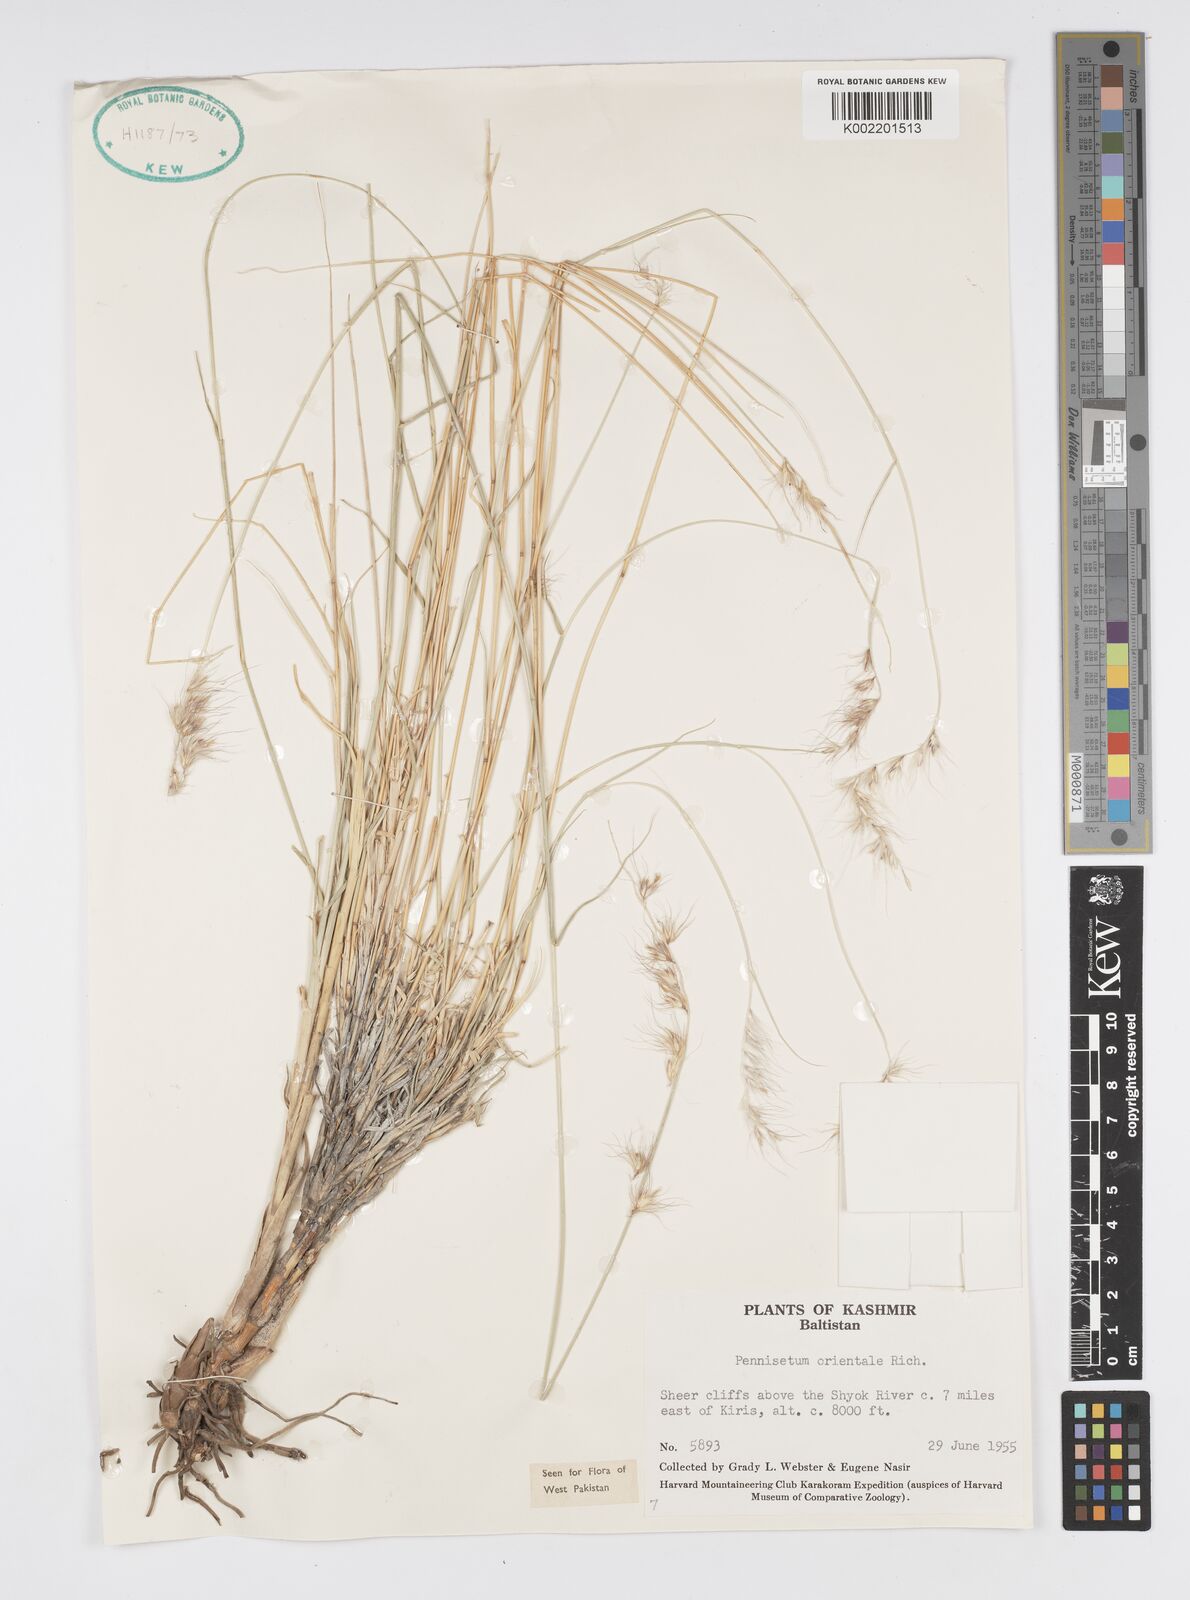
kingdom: Plantae
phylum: Tracheophyta
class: Liliopsida
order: Poales
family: Poaceae
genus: Cenchrus
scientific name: Cenchrus orientalis
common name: Oriental fountain grass
